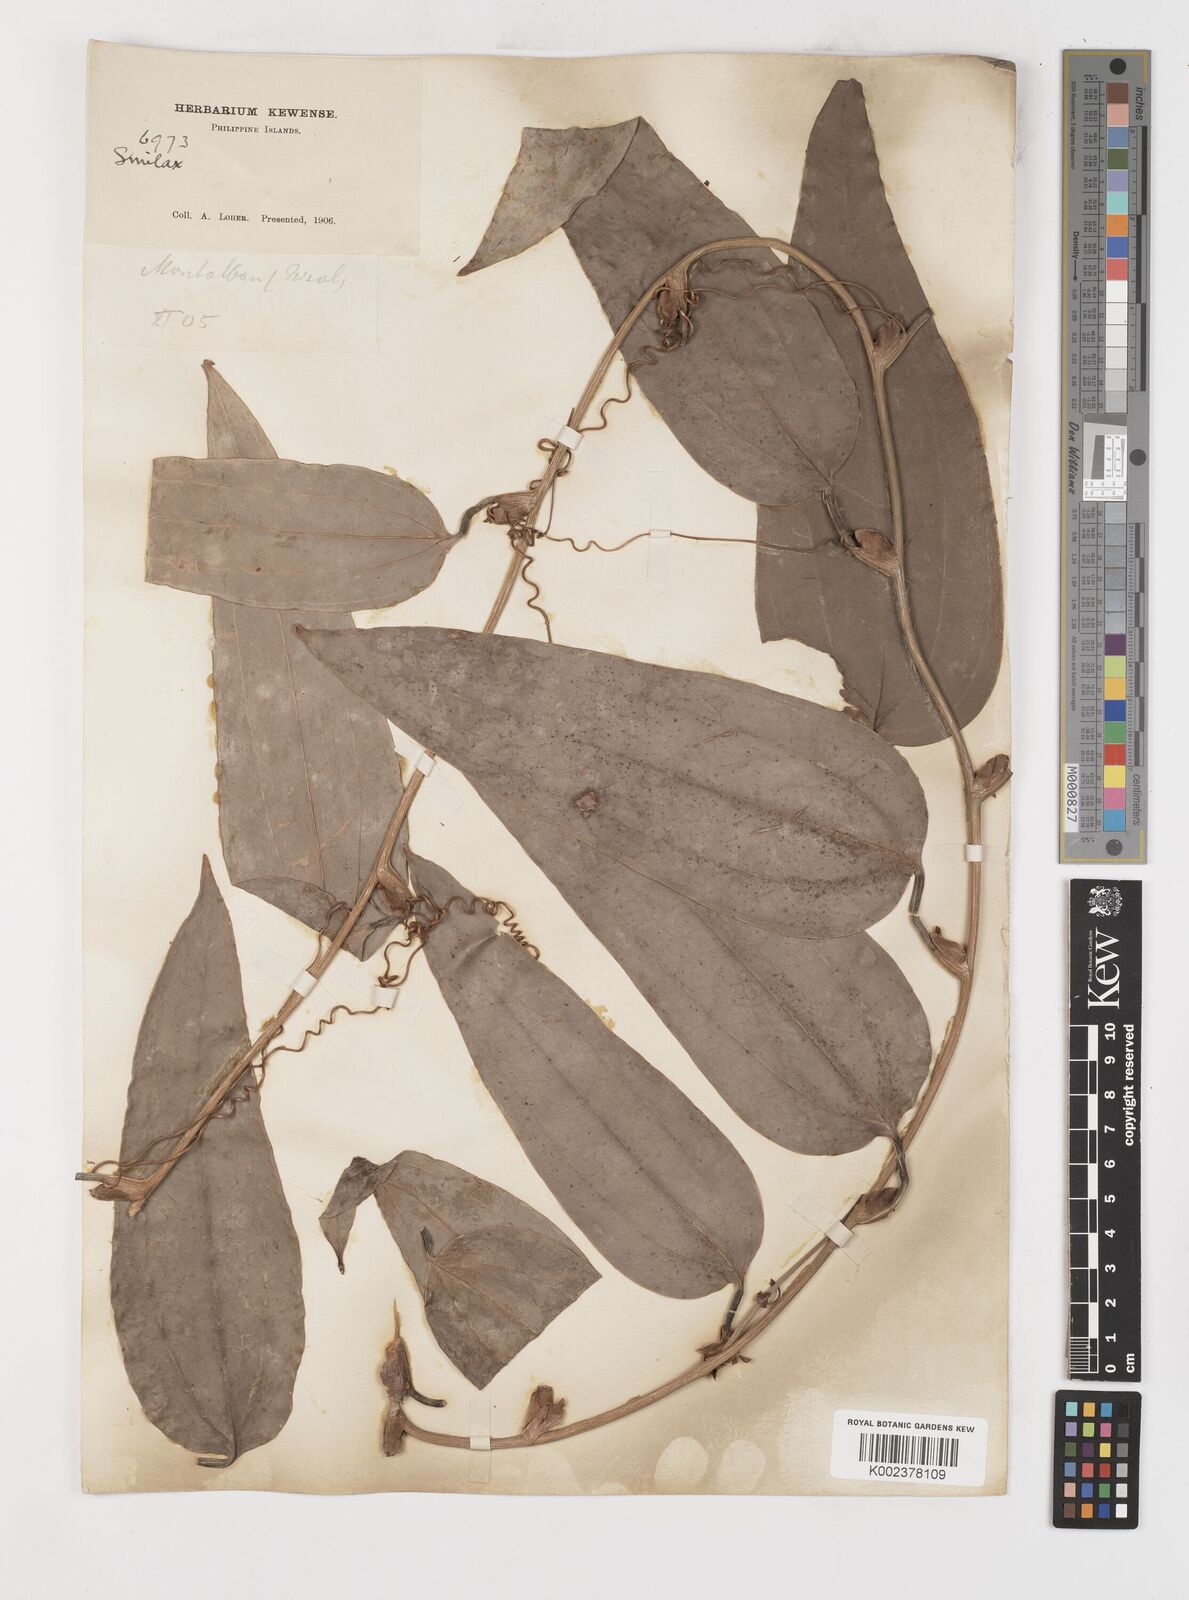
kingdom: Plantae
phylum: Tracheophyta
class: Liliopsida
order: Liliales
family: Smilacaceae
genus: Smilax
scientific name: Smilax
